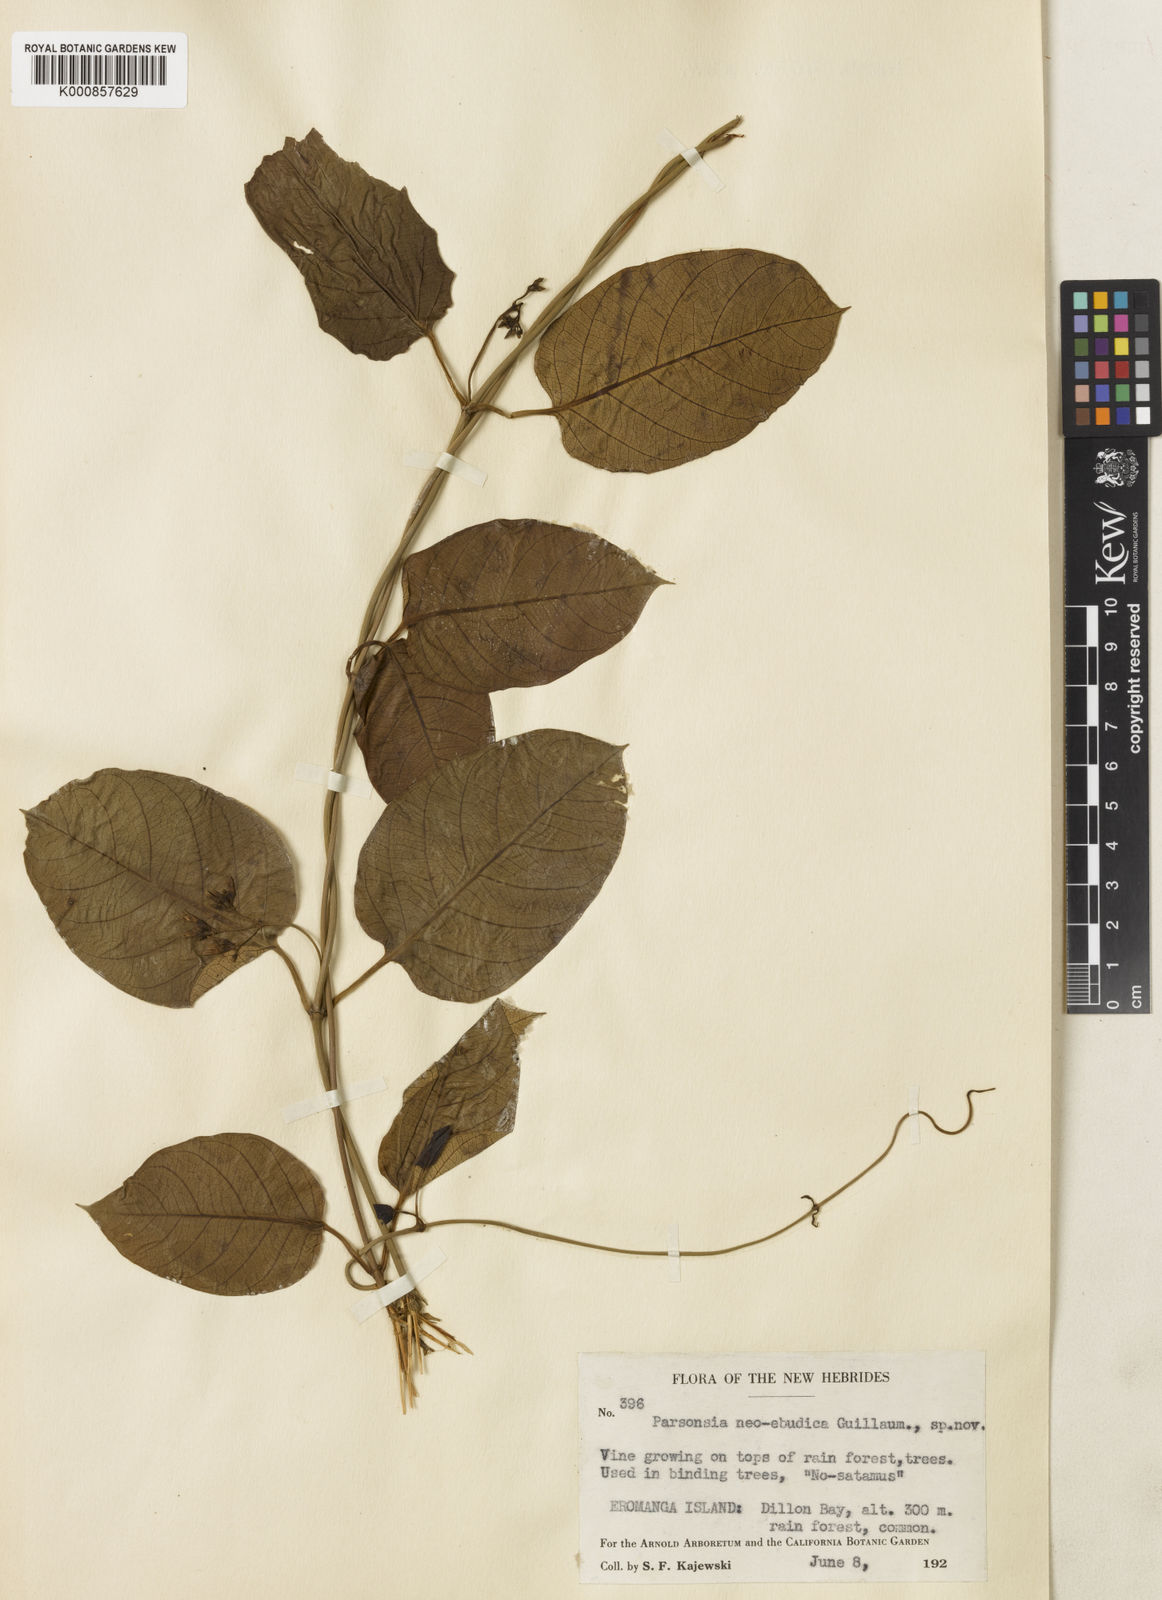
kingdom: Plantae
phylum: Tracheophyta
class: Magnoliopsida
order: Gentianales
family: Apocynaceae
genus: Parsonsia
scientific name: Parsonsia laevis
